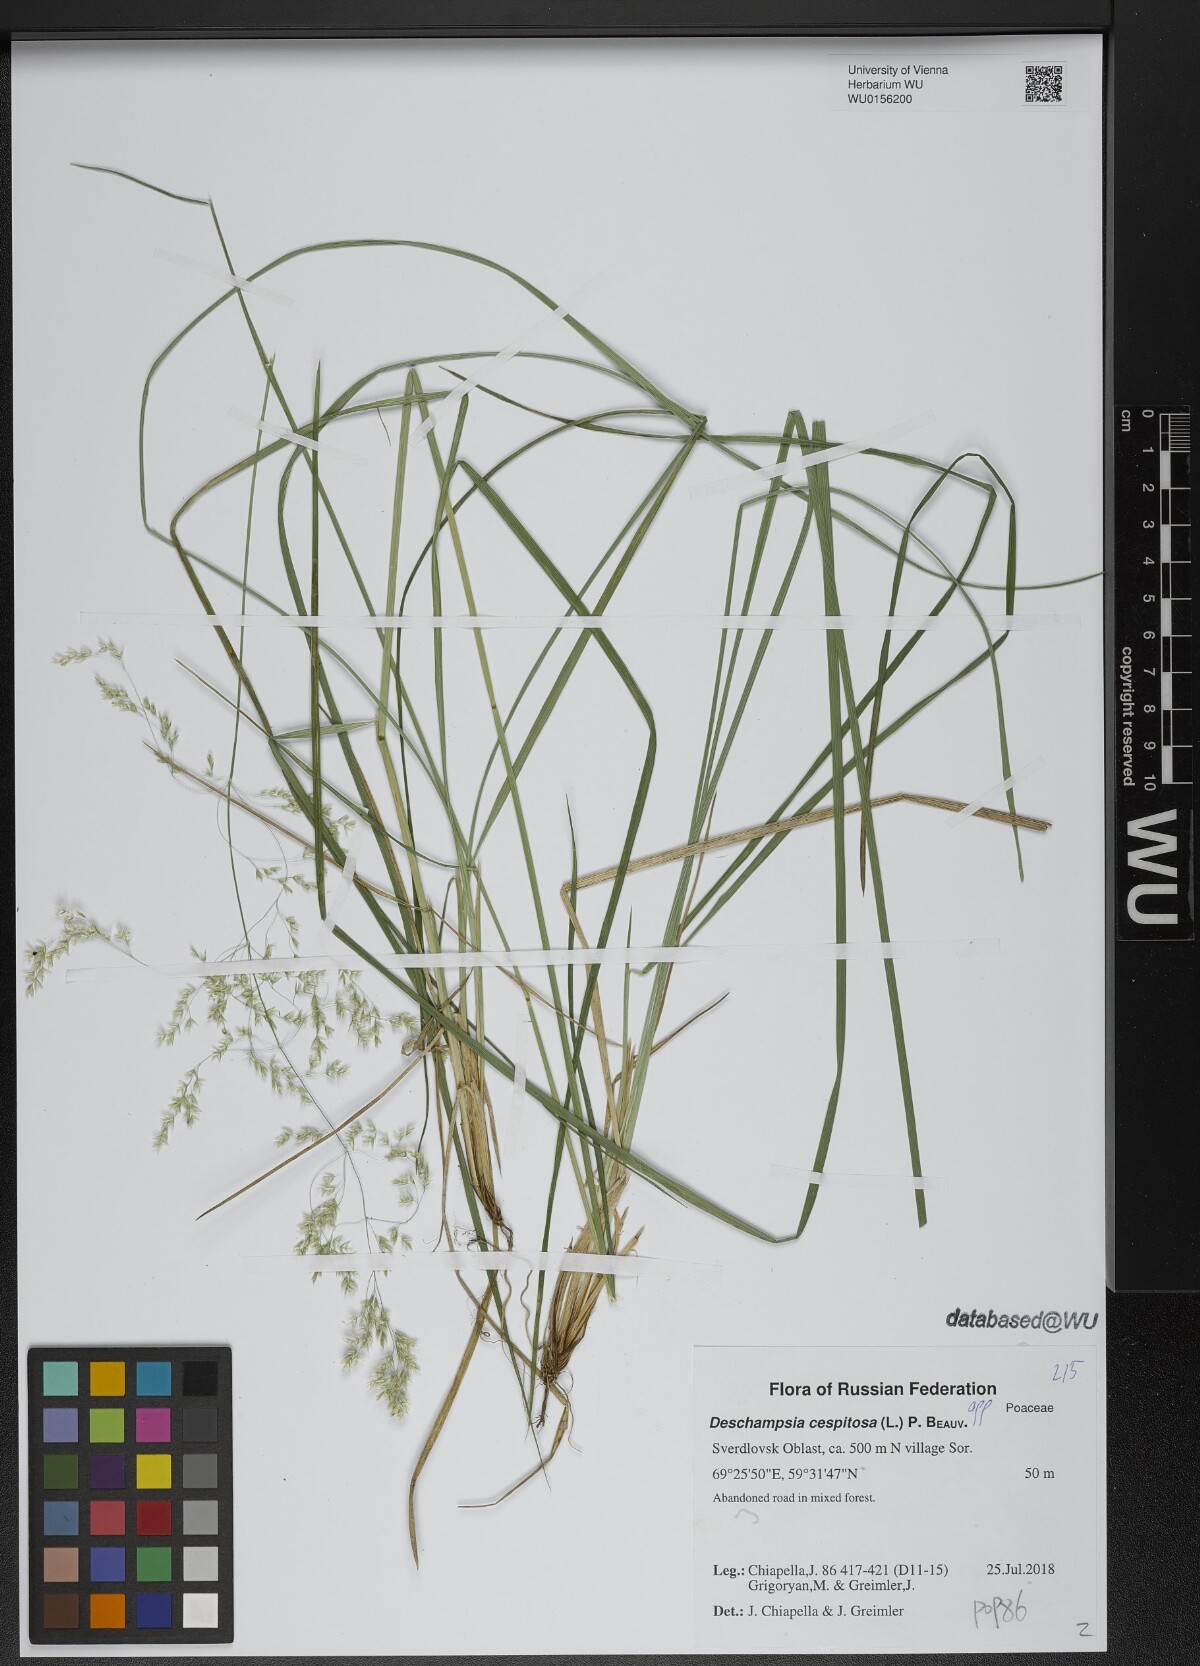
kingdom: Plantae
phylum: Tracheophyta
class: Liliopsida
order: Poales
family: Poaceae
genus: Deschampsia
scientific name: Deschampsia cespitosa
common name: Tufted hair-grass
